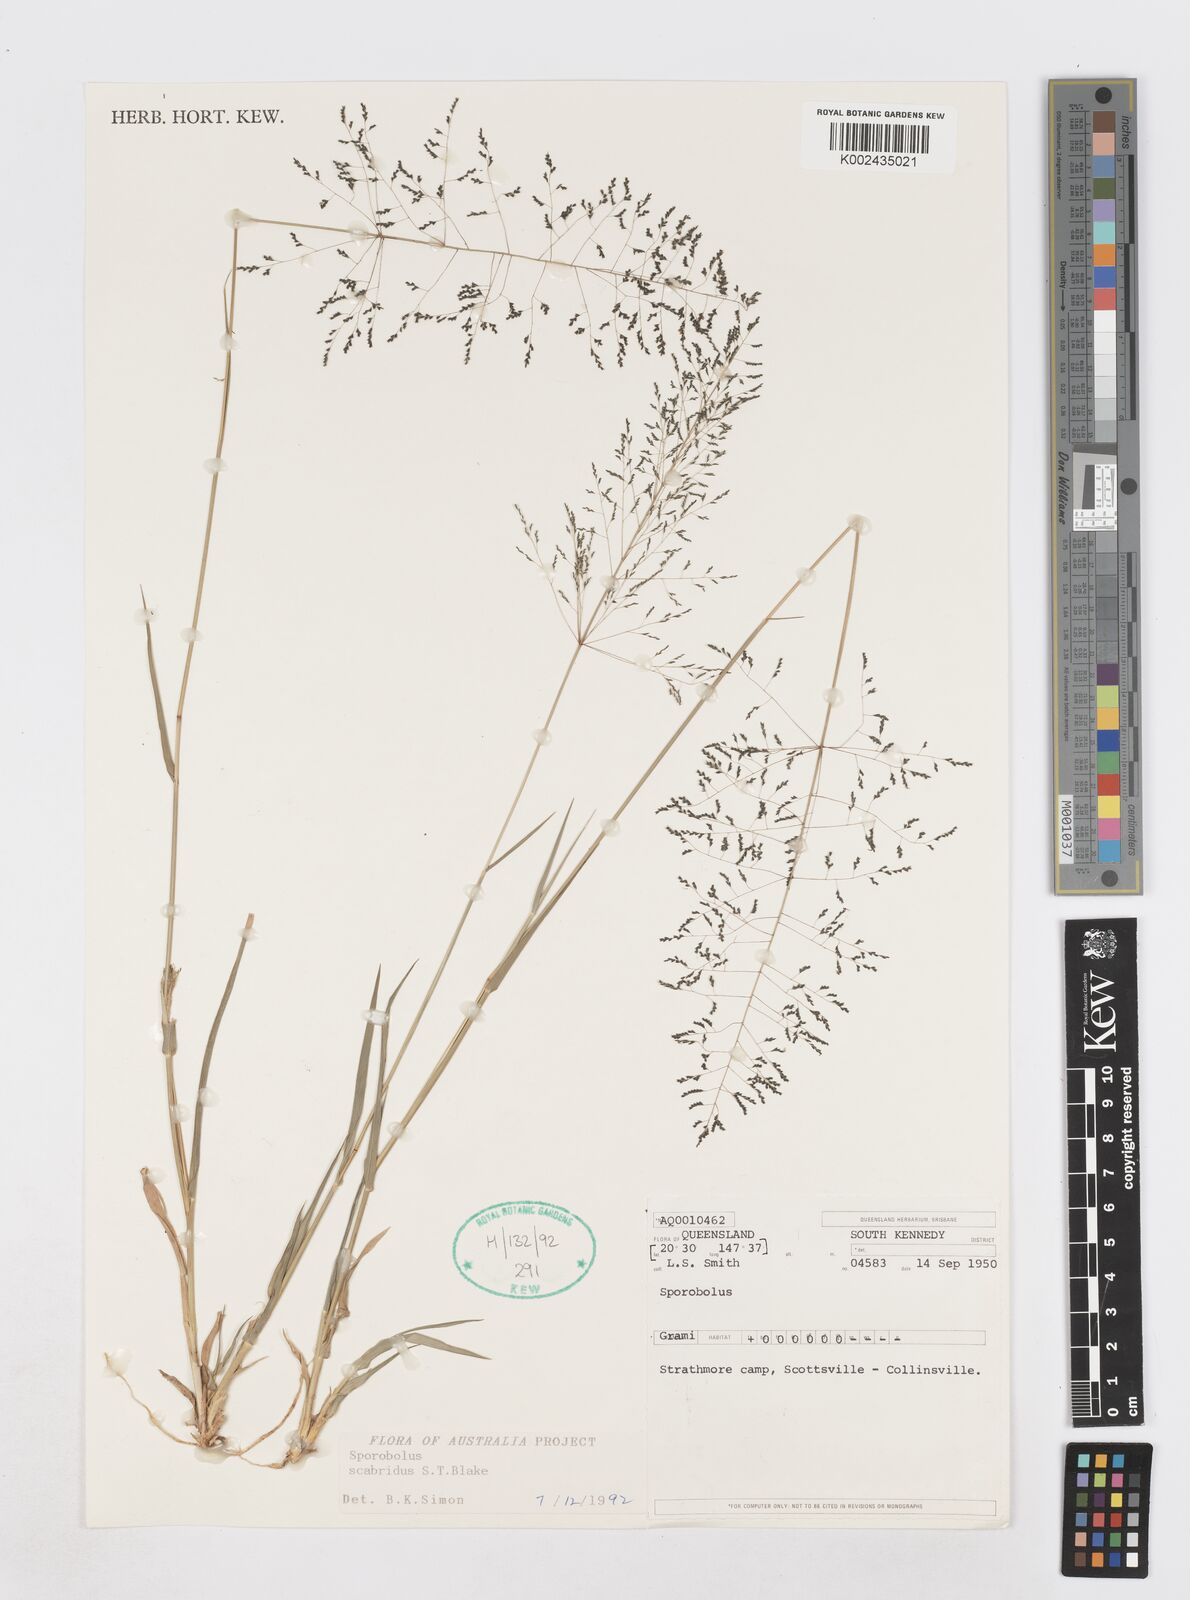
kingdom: Plantae
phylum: Tracheophyta
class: Liliopsida
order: Poales
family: Poaceae
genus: Sporobolus
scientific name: Sporobolus scabridus
